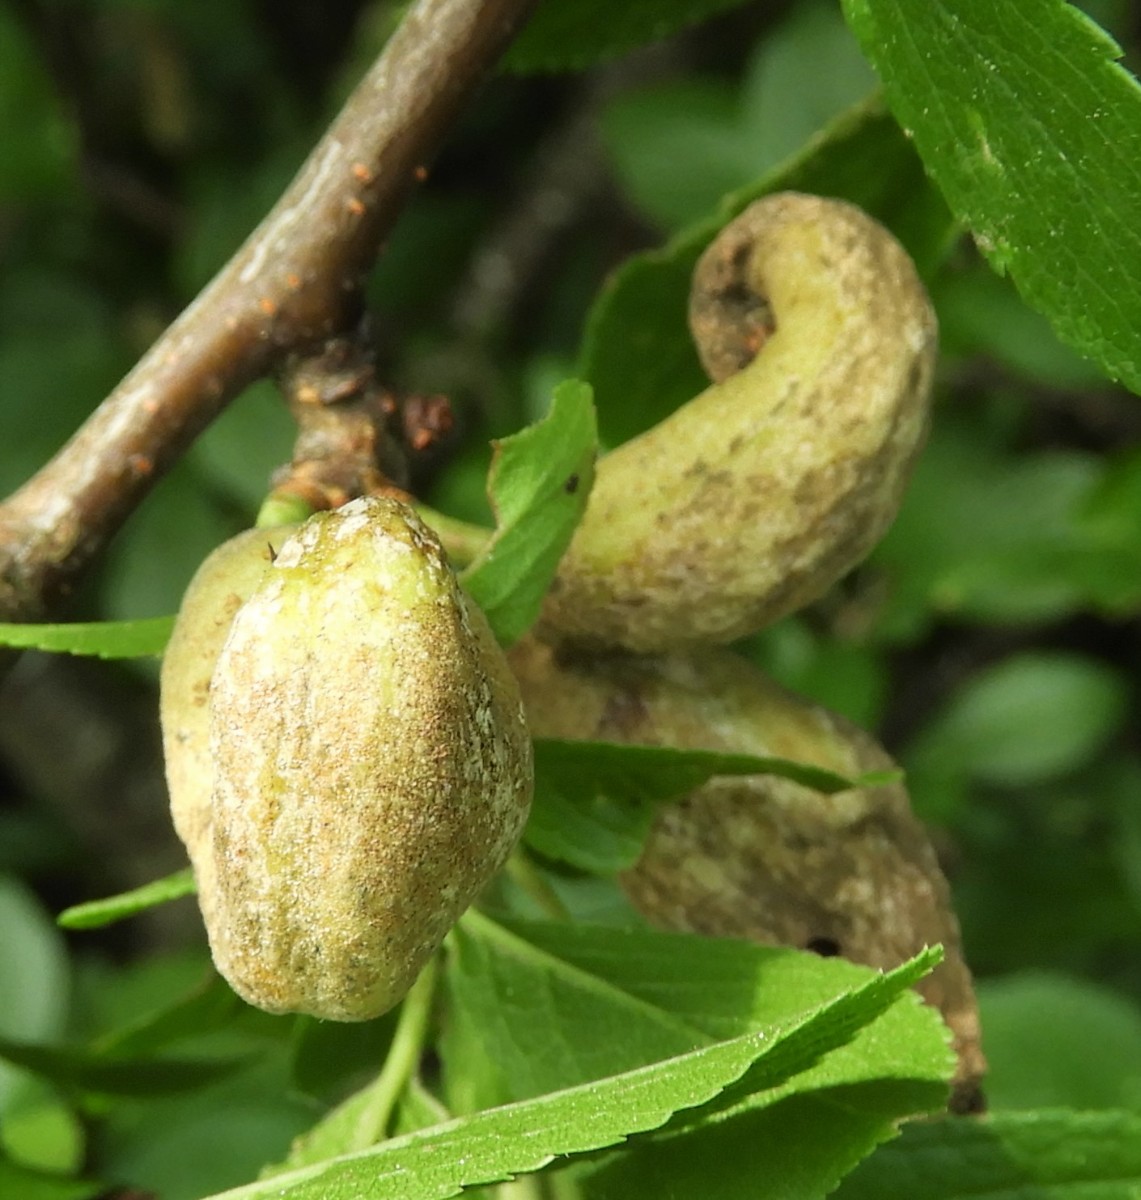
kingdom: Fungi
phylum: Ascomycota
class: Taphrinomycetes
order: Taphrinales
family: Taphrinaceae
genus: Taphrina
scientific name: Taphrina pruni
